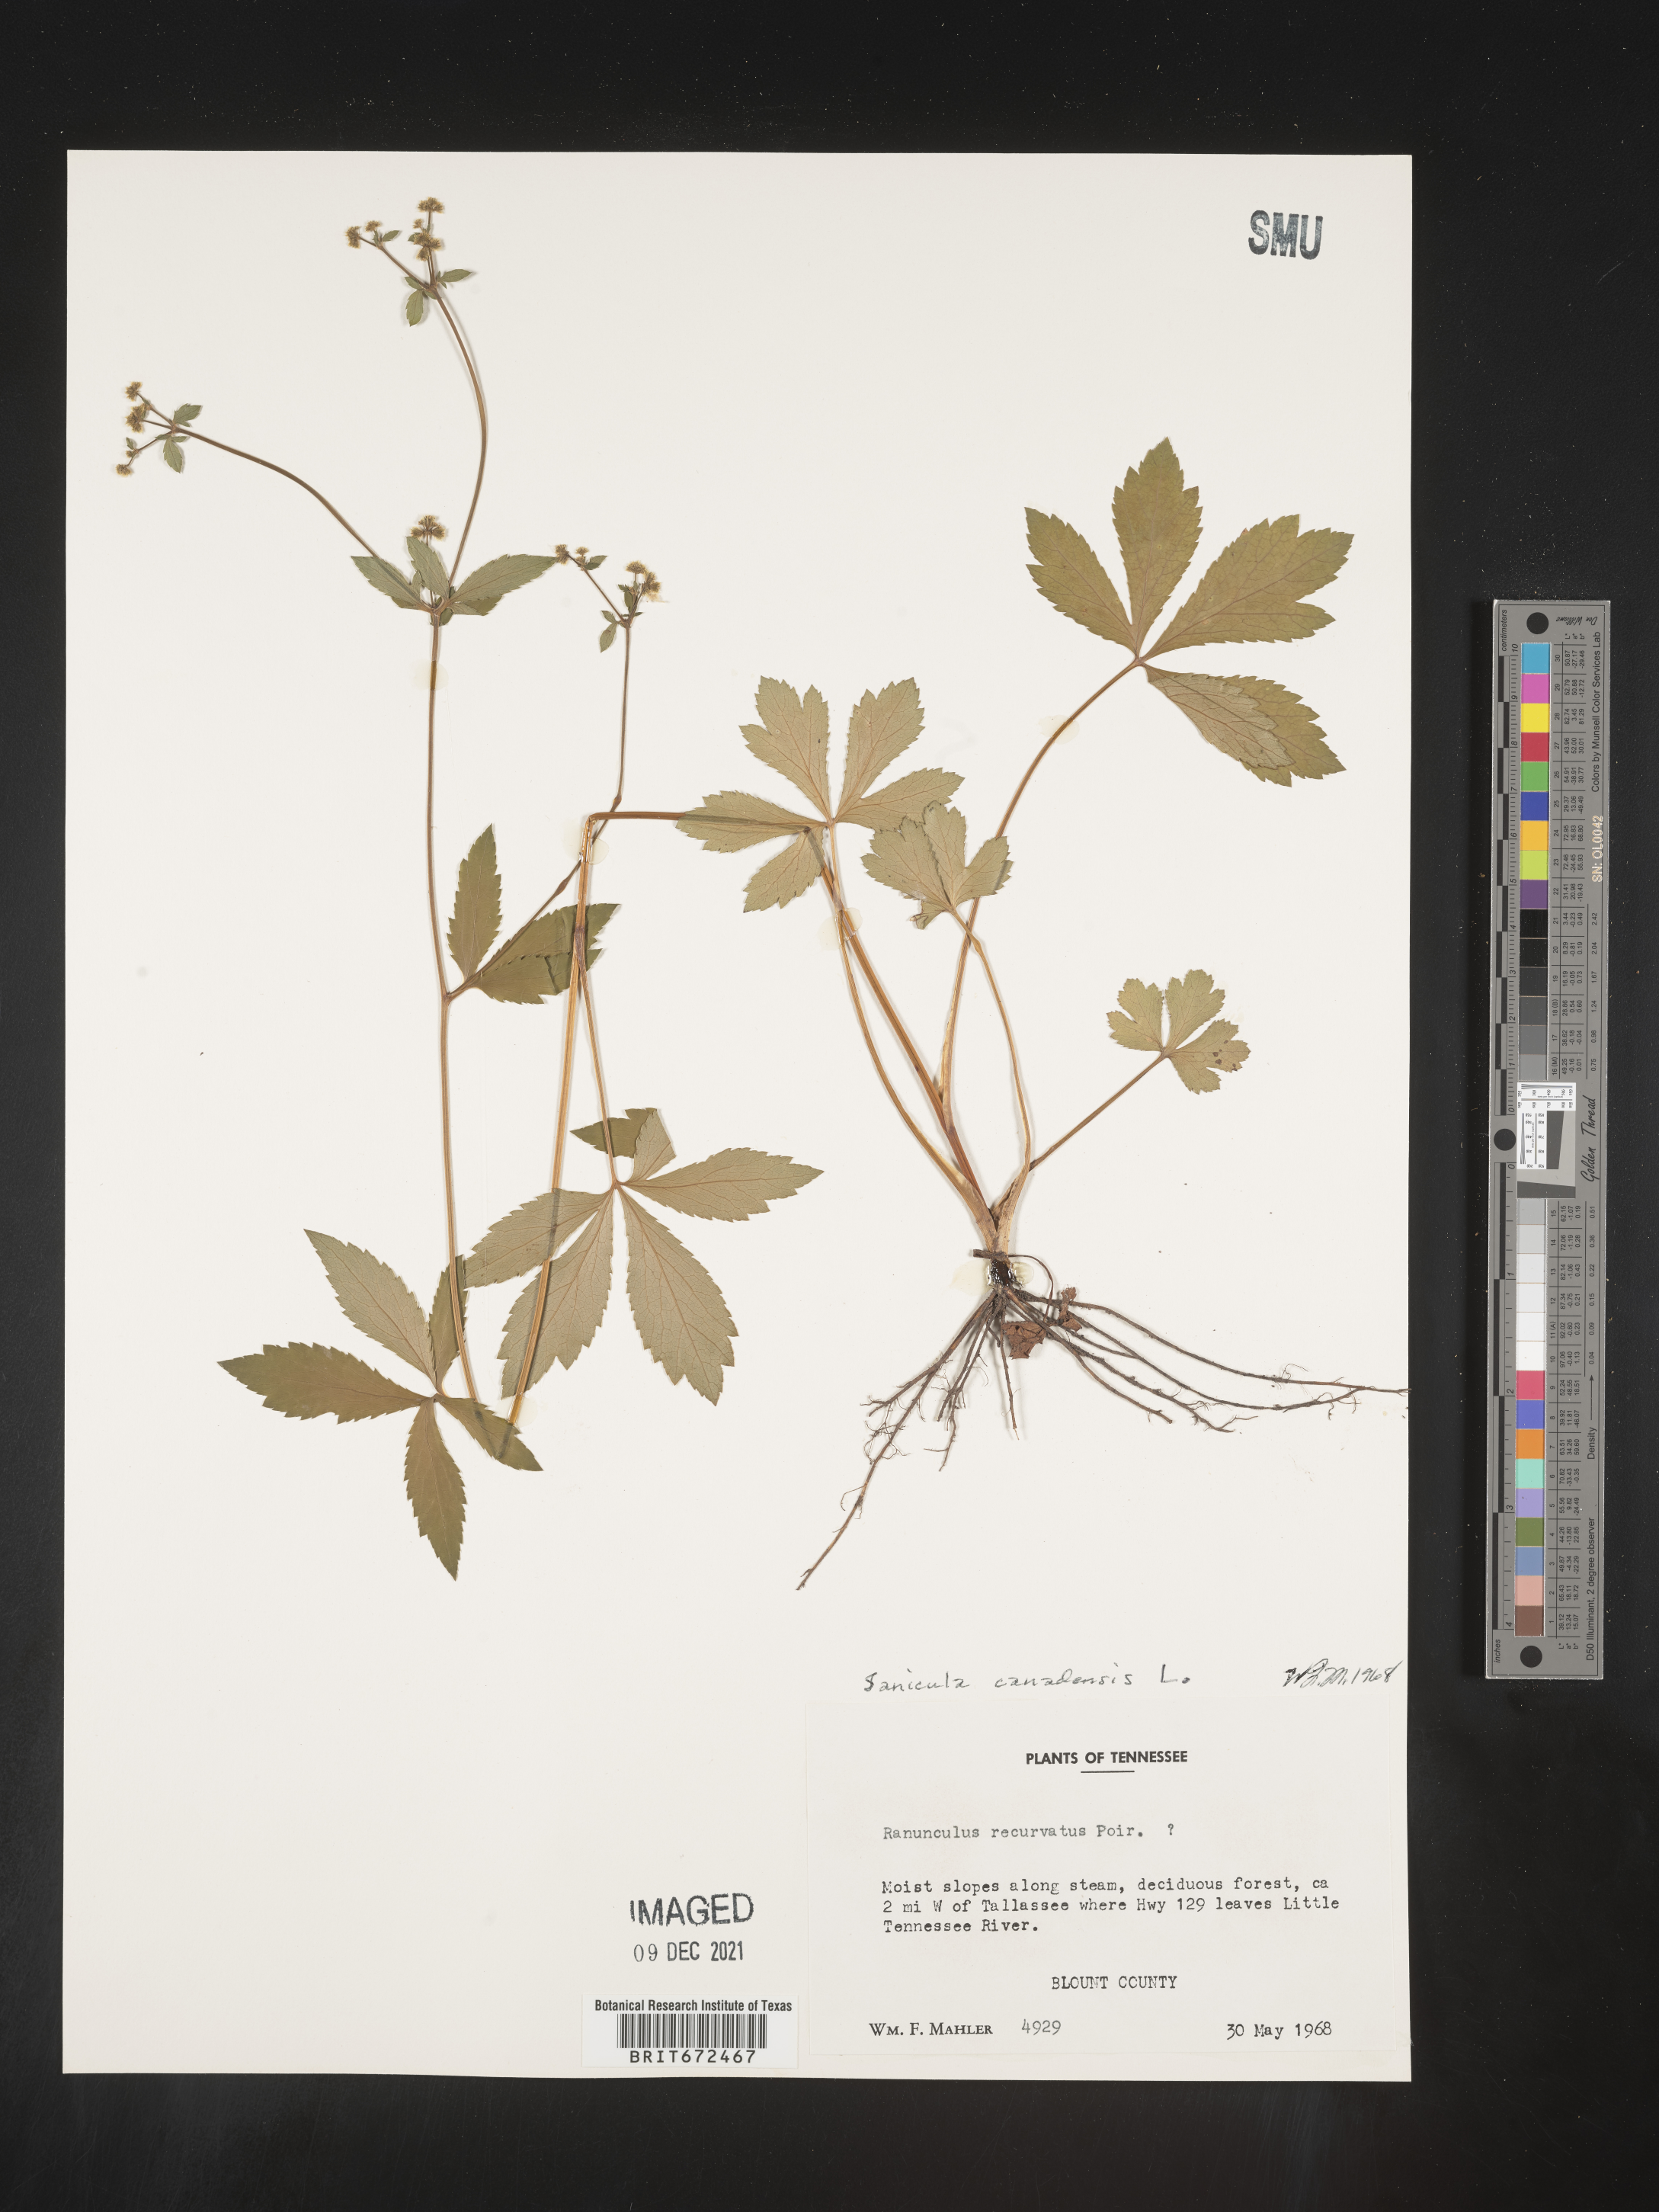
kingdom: Plantae
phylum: Tracheophyta
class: Magnoliopsida
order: Apiales
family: Apiaceae
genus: Sanicula
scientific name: Sanicula canadensis
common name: Canada sanicle
